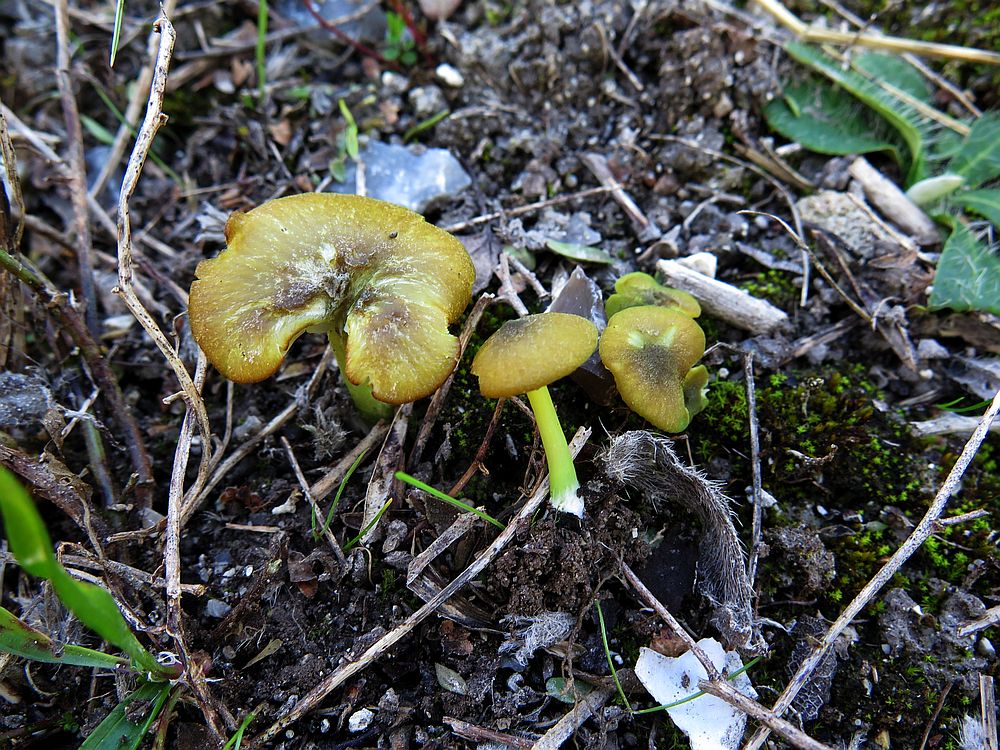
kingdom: Fungi
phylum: Basidiomycota
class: Agaricomycetes
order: Agaricales
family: Entolomataceae
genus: Entoloma
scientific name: Entoloma incanum
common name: grøngul rødblad
